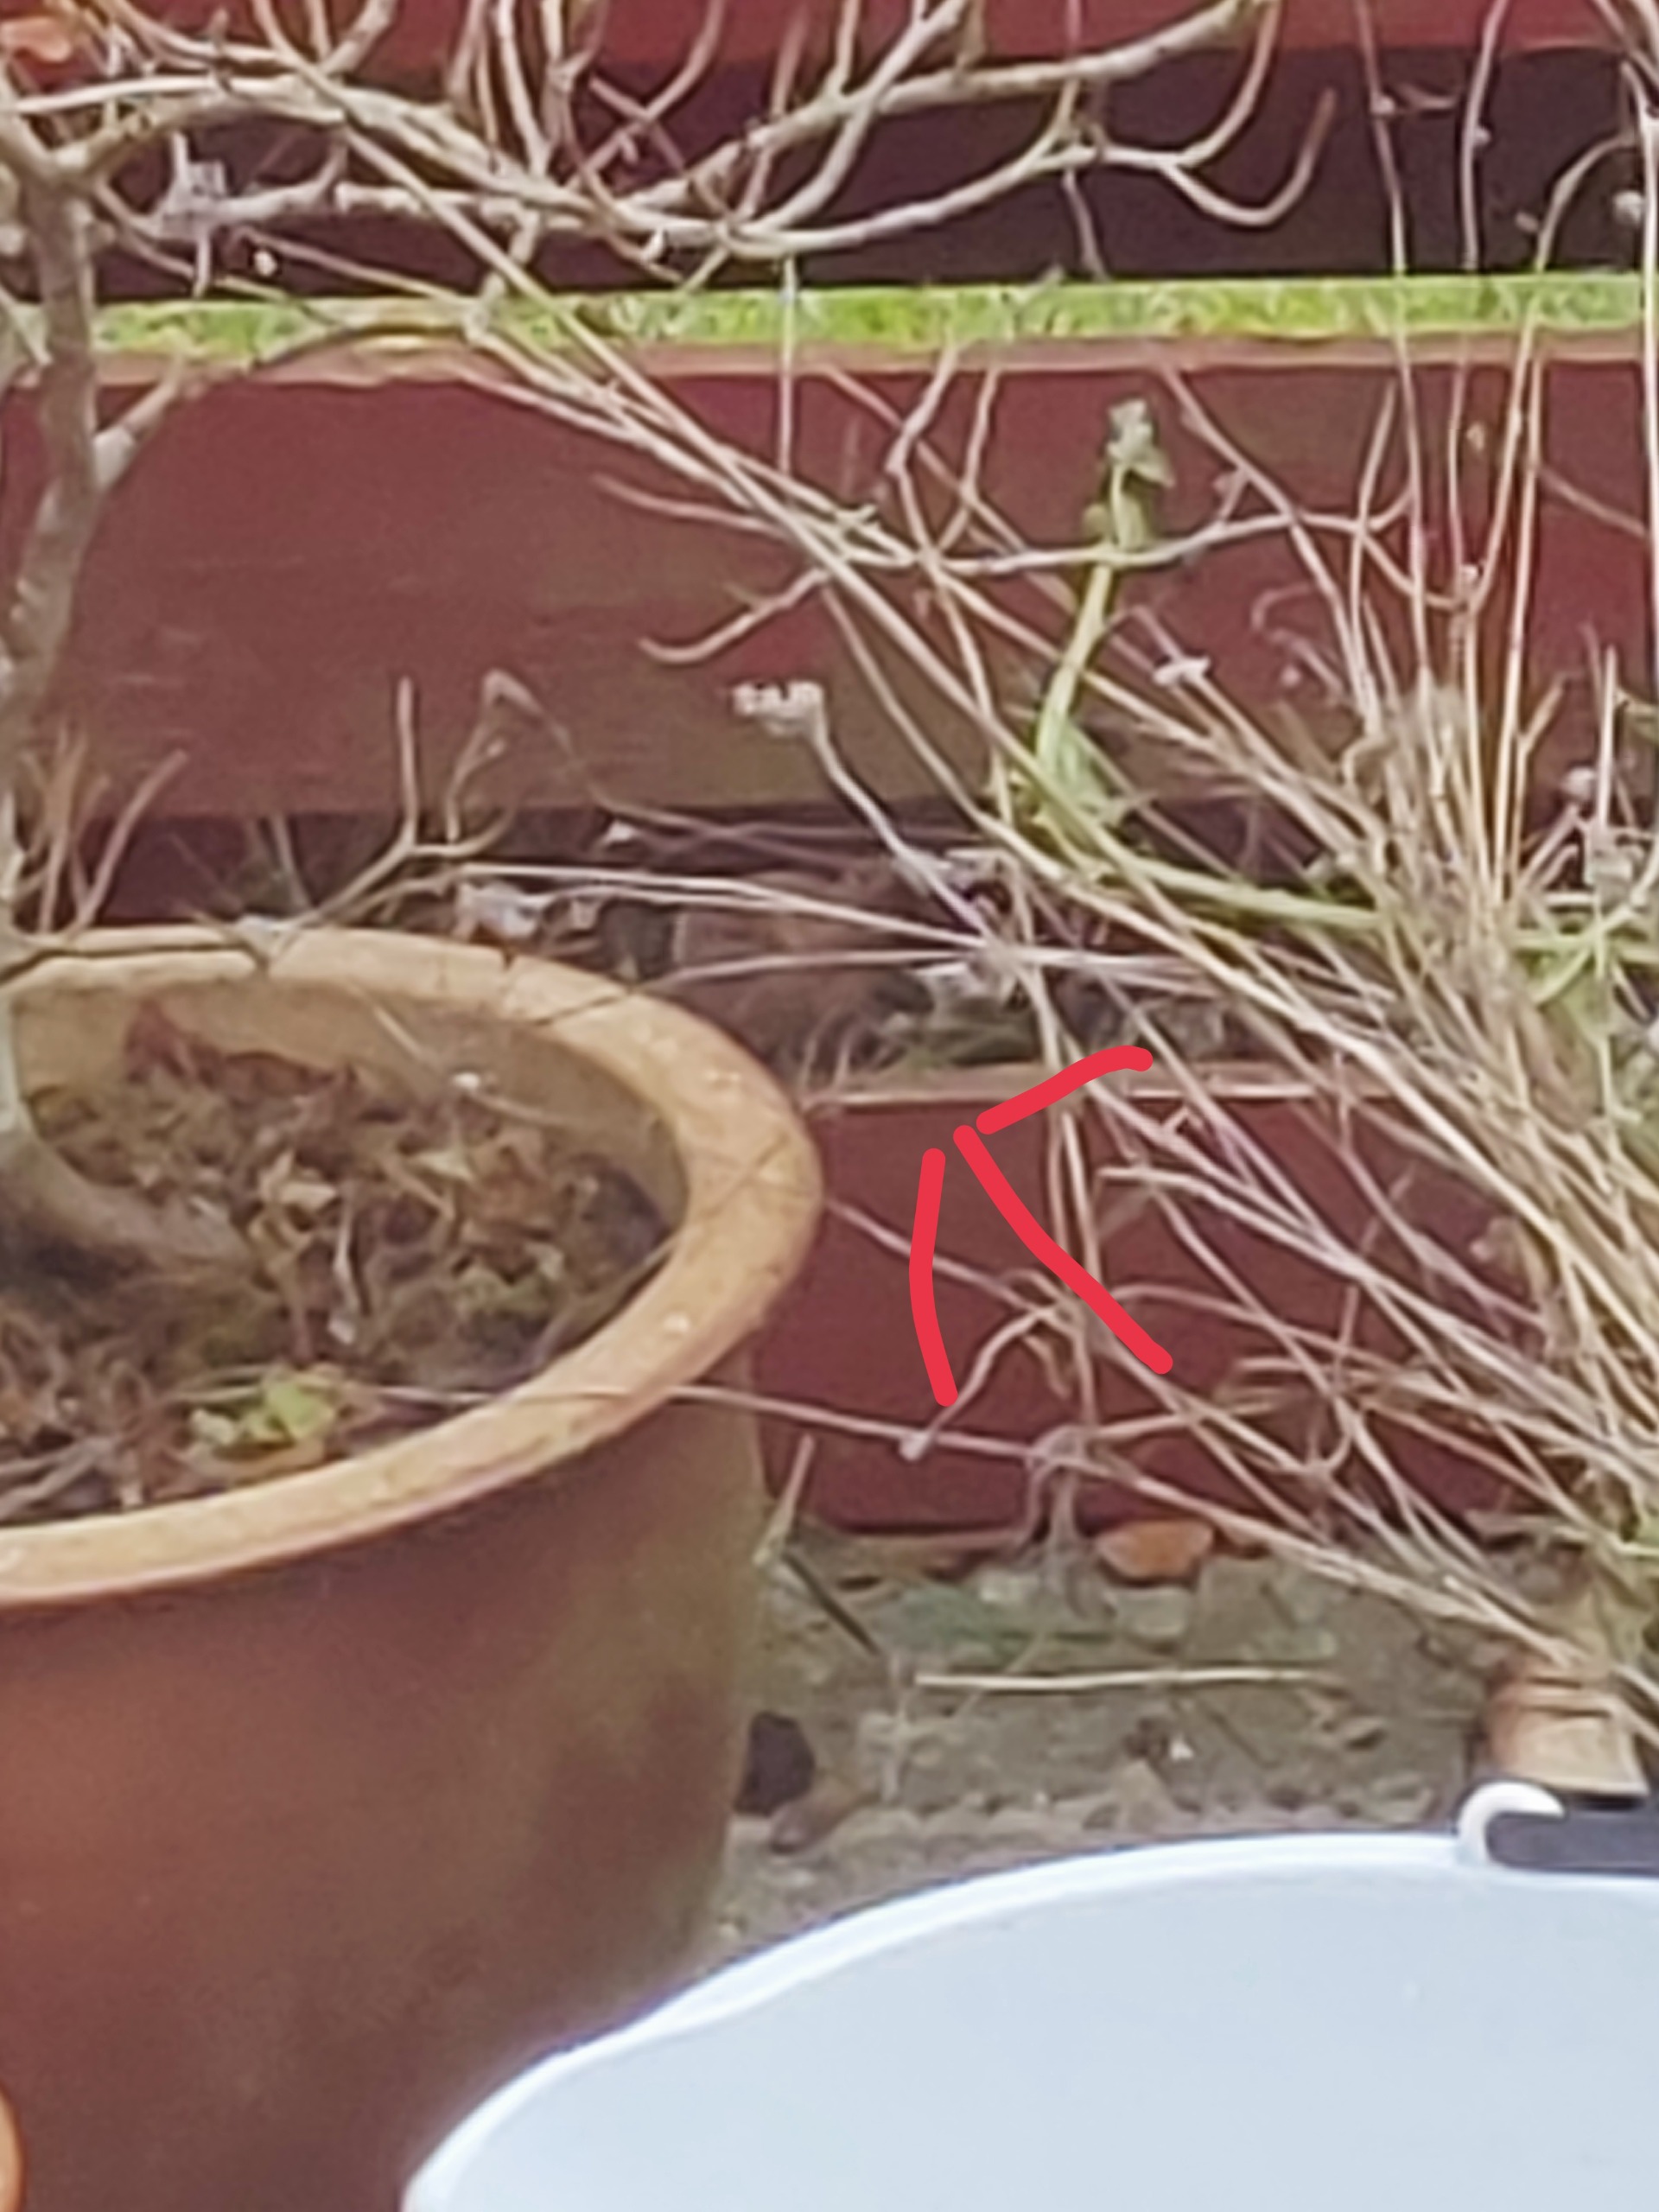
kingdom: Animalia
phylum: Chordata
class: Aves
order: Passeriformes
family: Troglodytidae
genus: Troglodytes
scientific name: Troglodytes troglodytes
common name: Gærdesmutte
